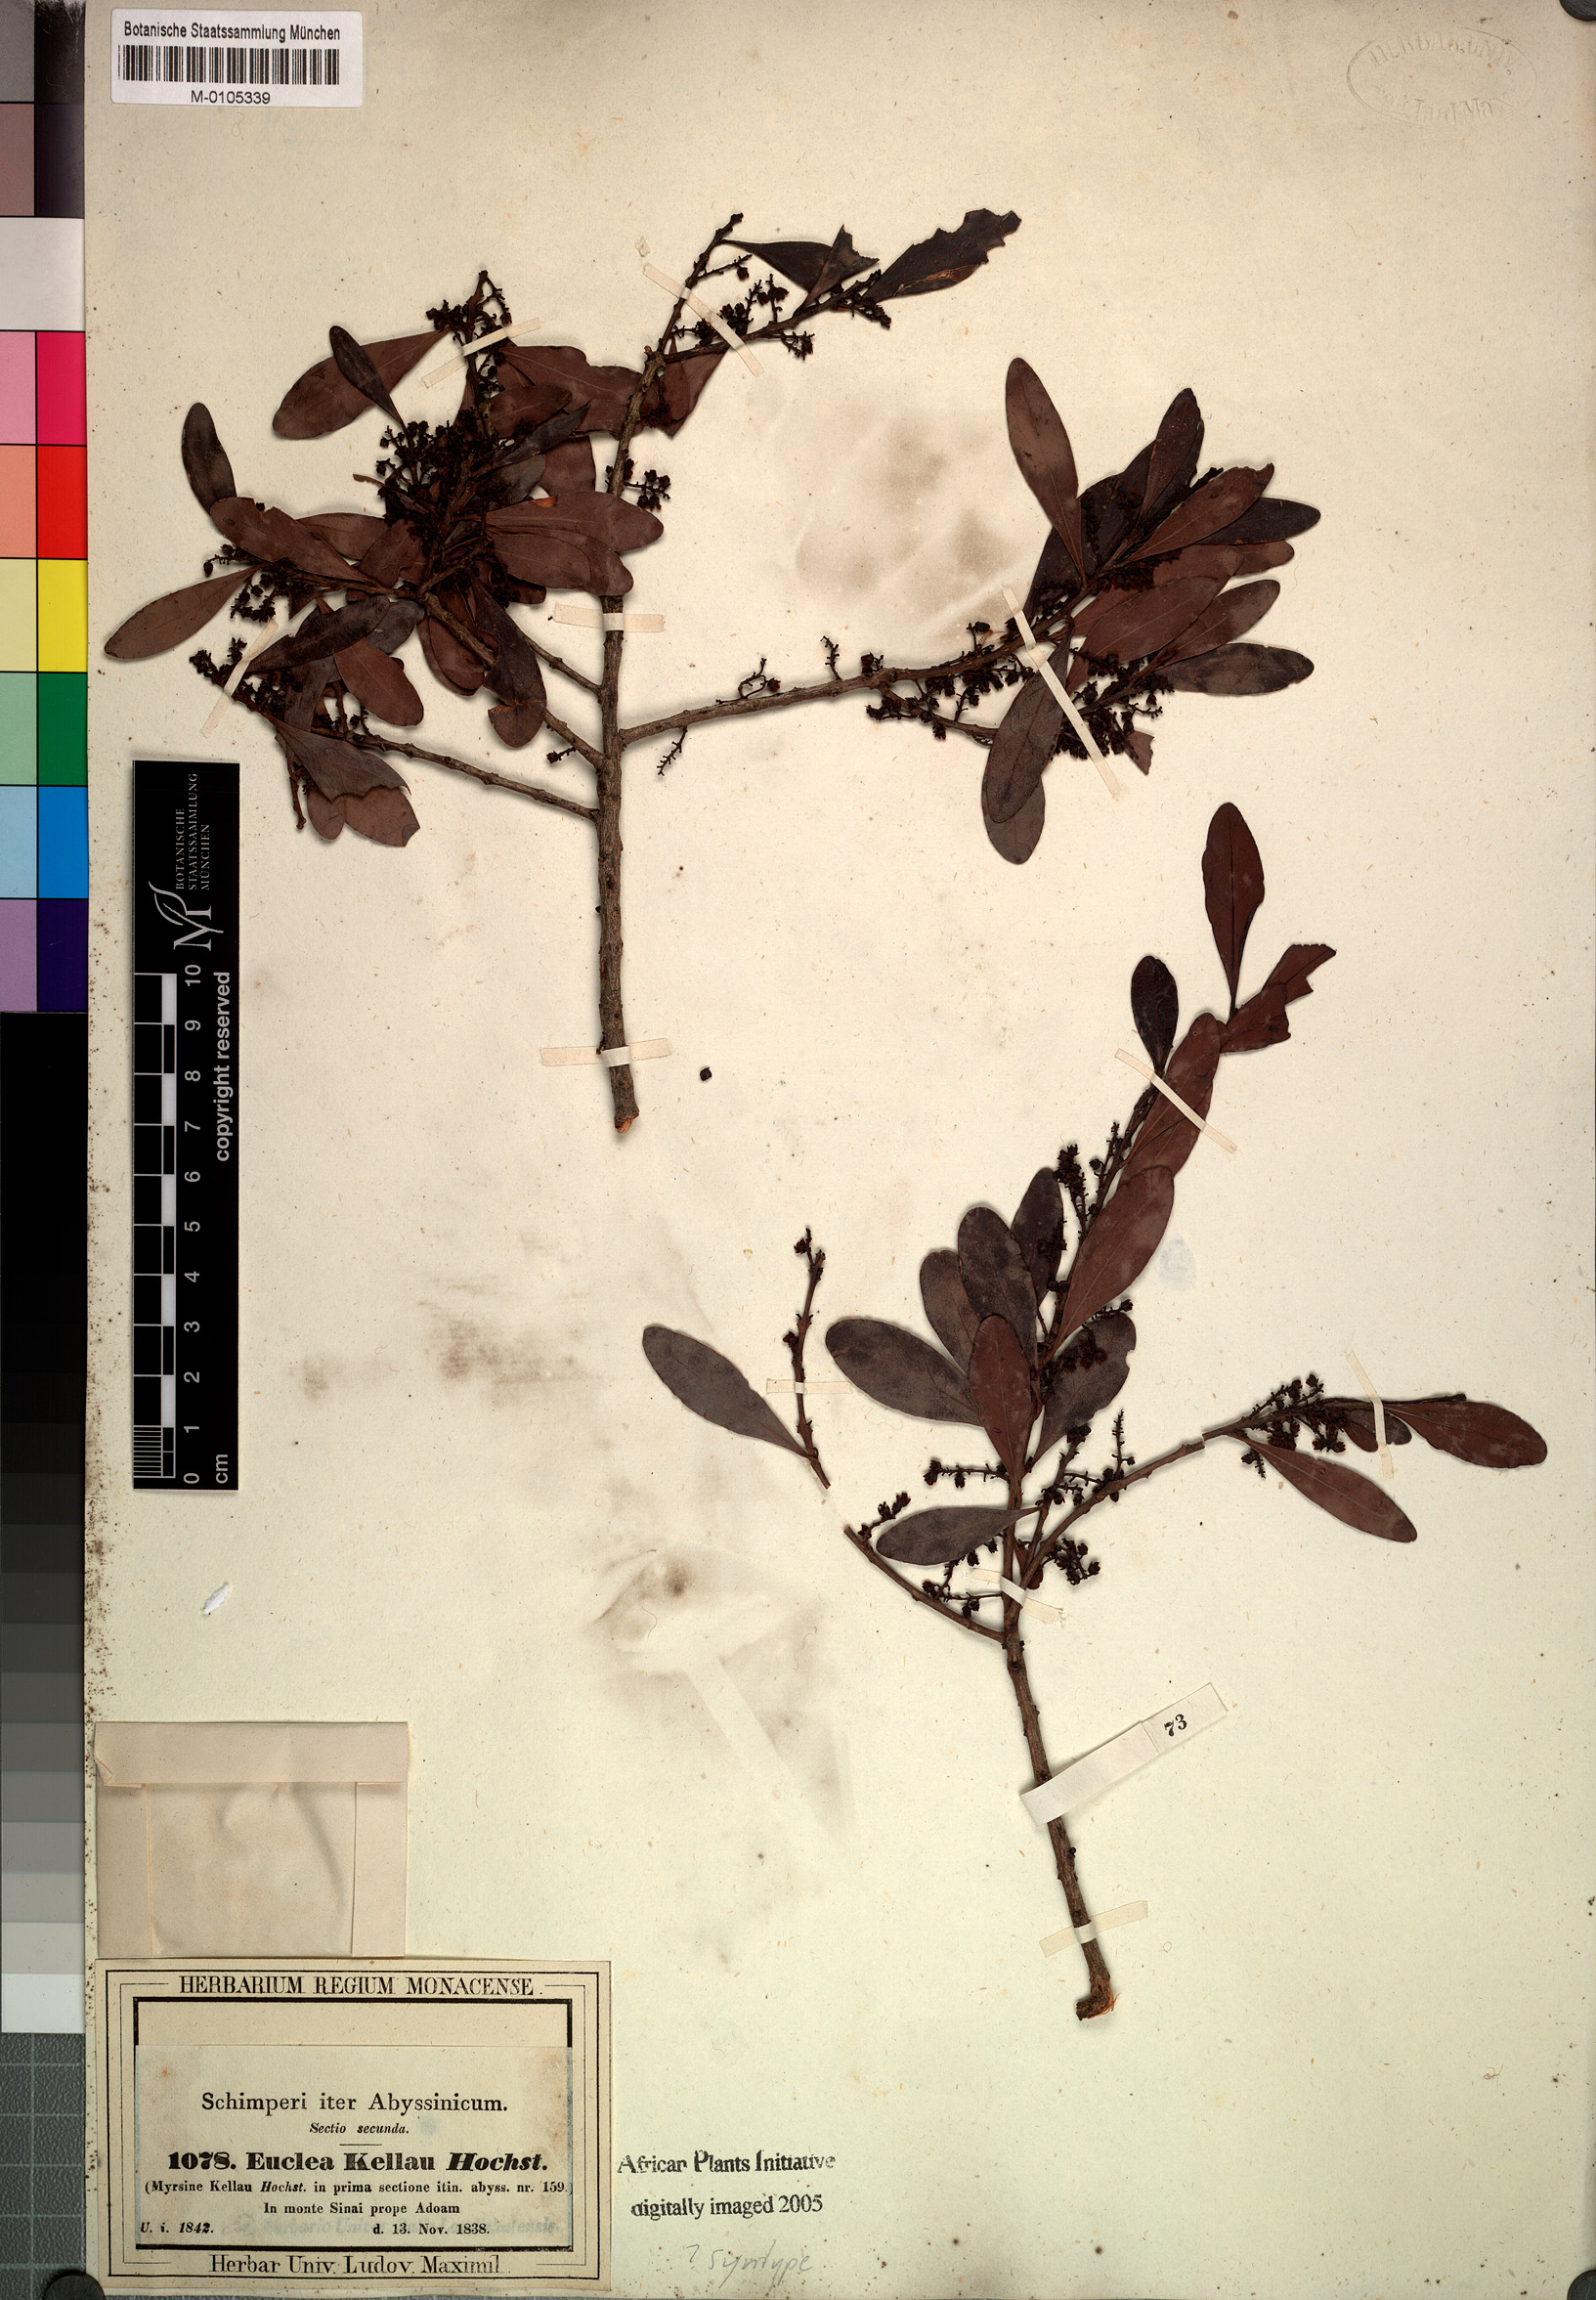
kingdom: Plantae
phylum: Tracheophyta
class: Magnoliopsida
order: Ericales
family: Ebenaceae
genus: Euclea
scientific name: Euclea racemosa
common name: Dune guarri
